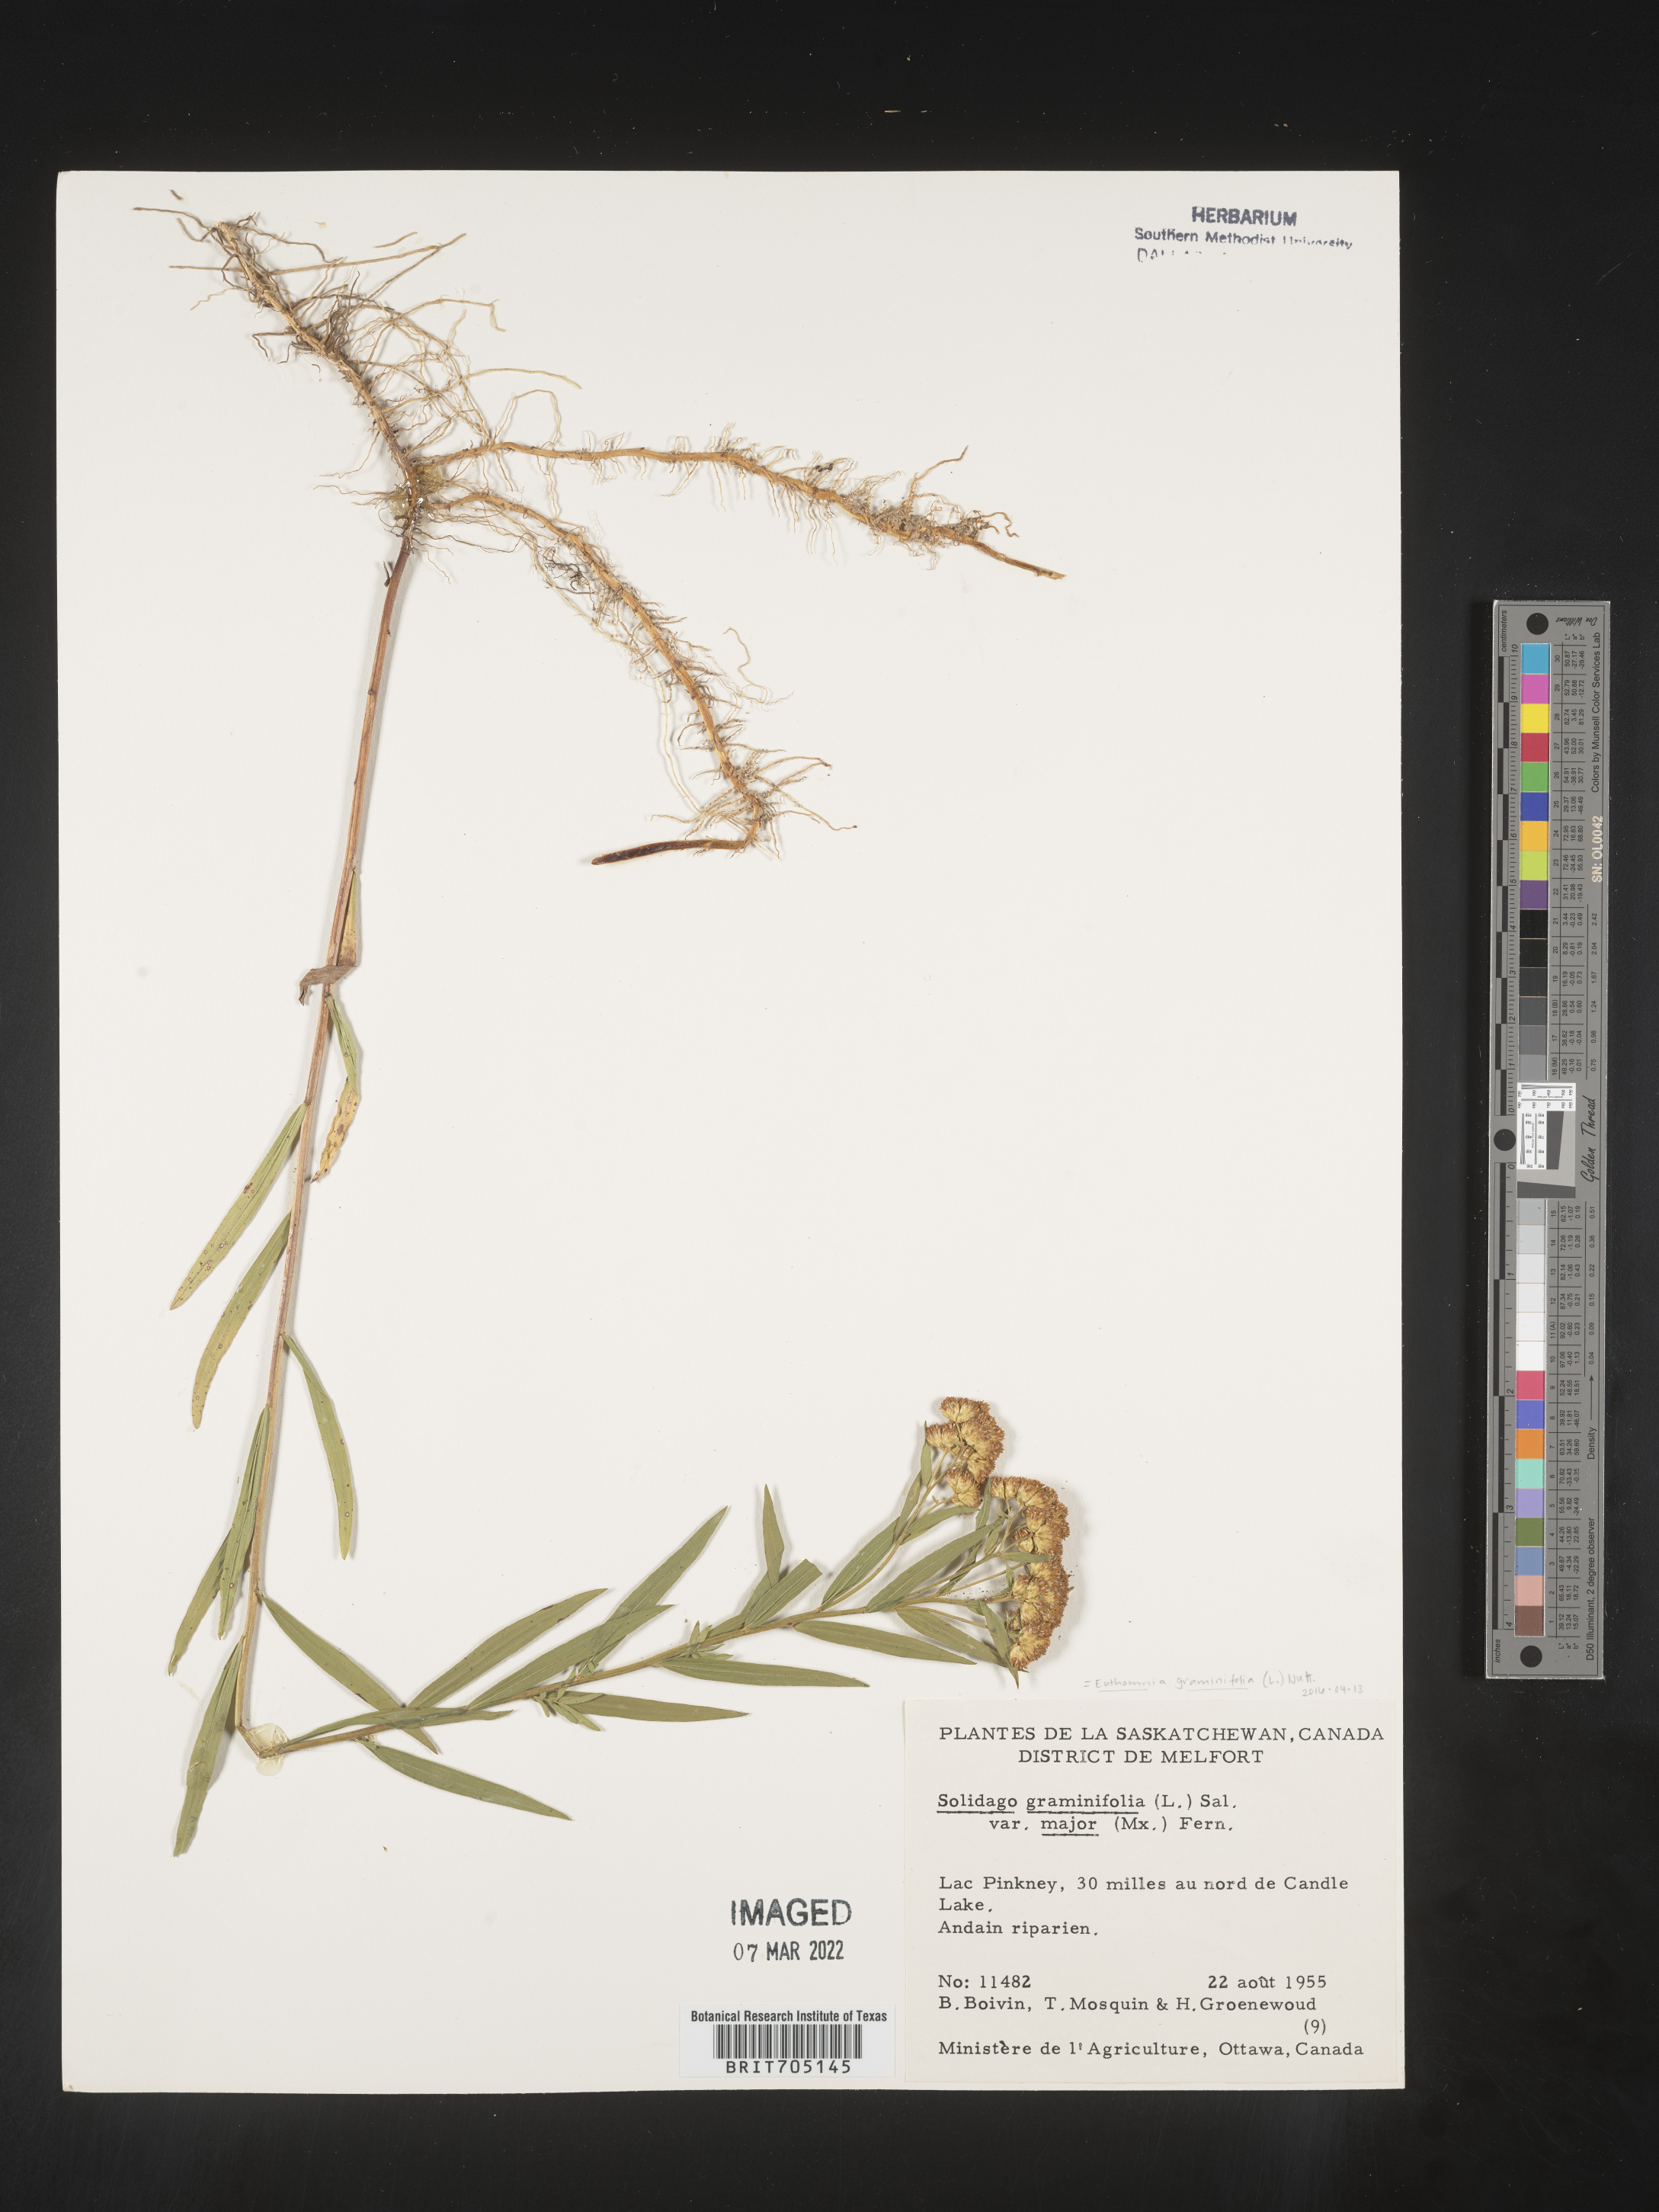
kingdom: Plantae
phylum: Tracheophyta
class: Magnoliopsida
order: Asterales
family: Asteraceae
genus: Euthamia
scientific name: Euthamia graminifolia
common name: Common goldentop
